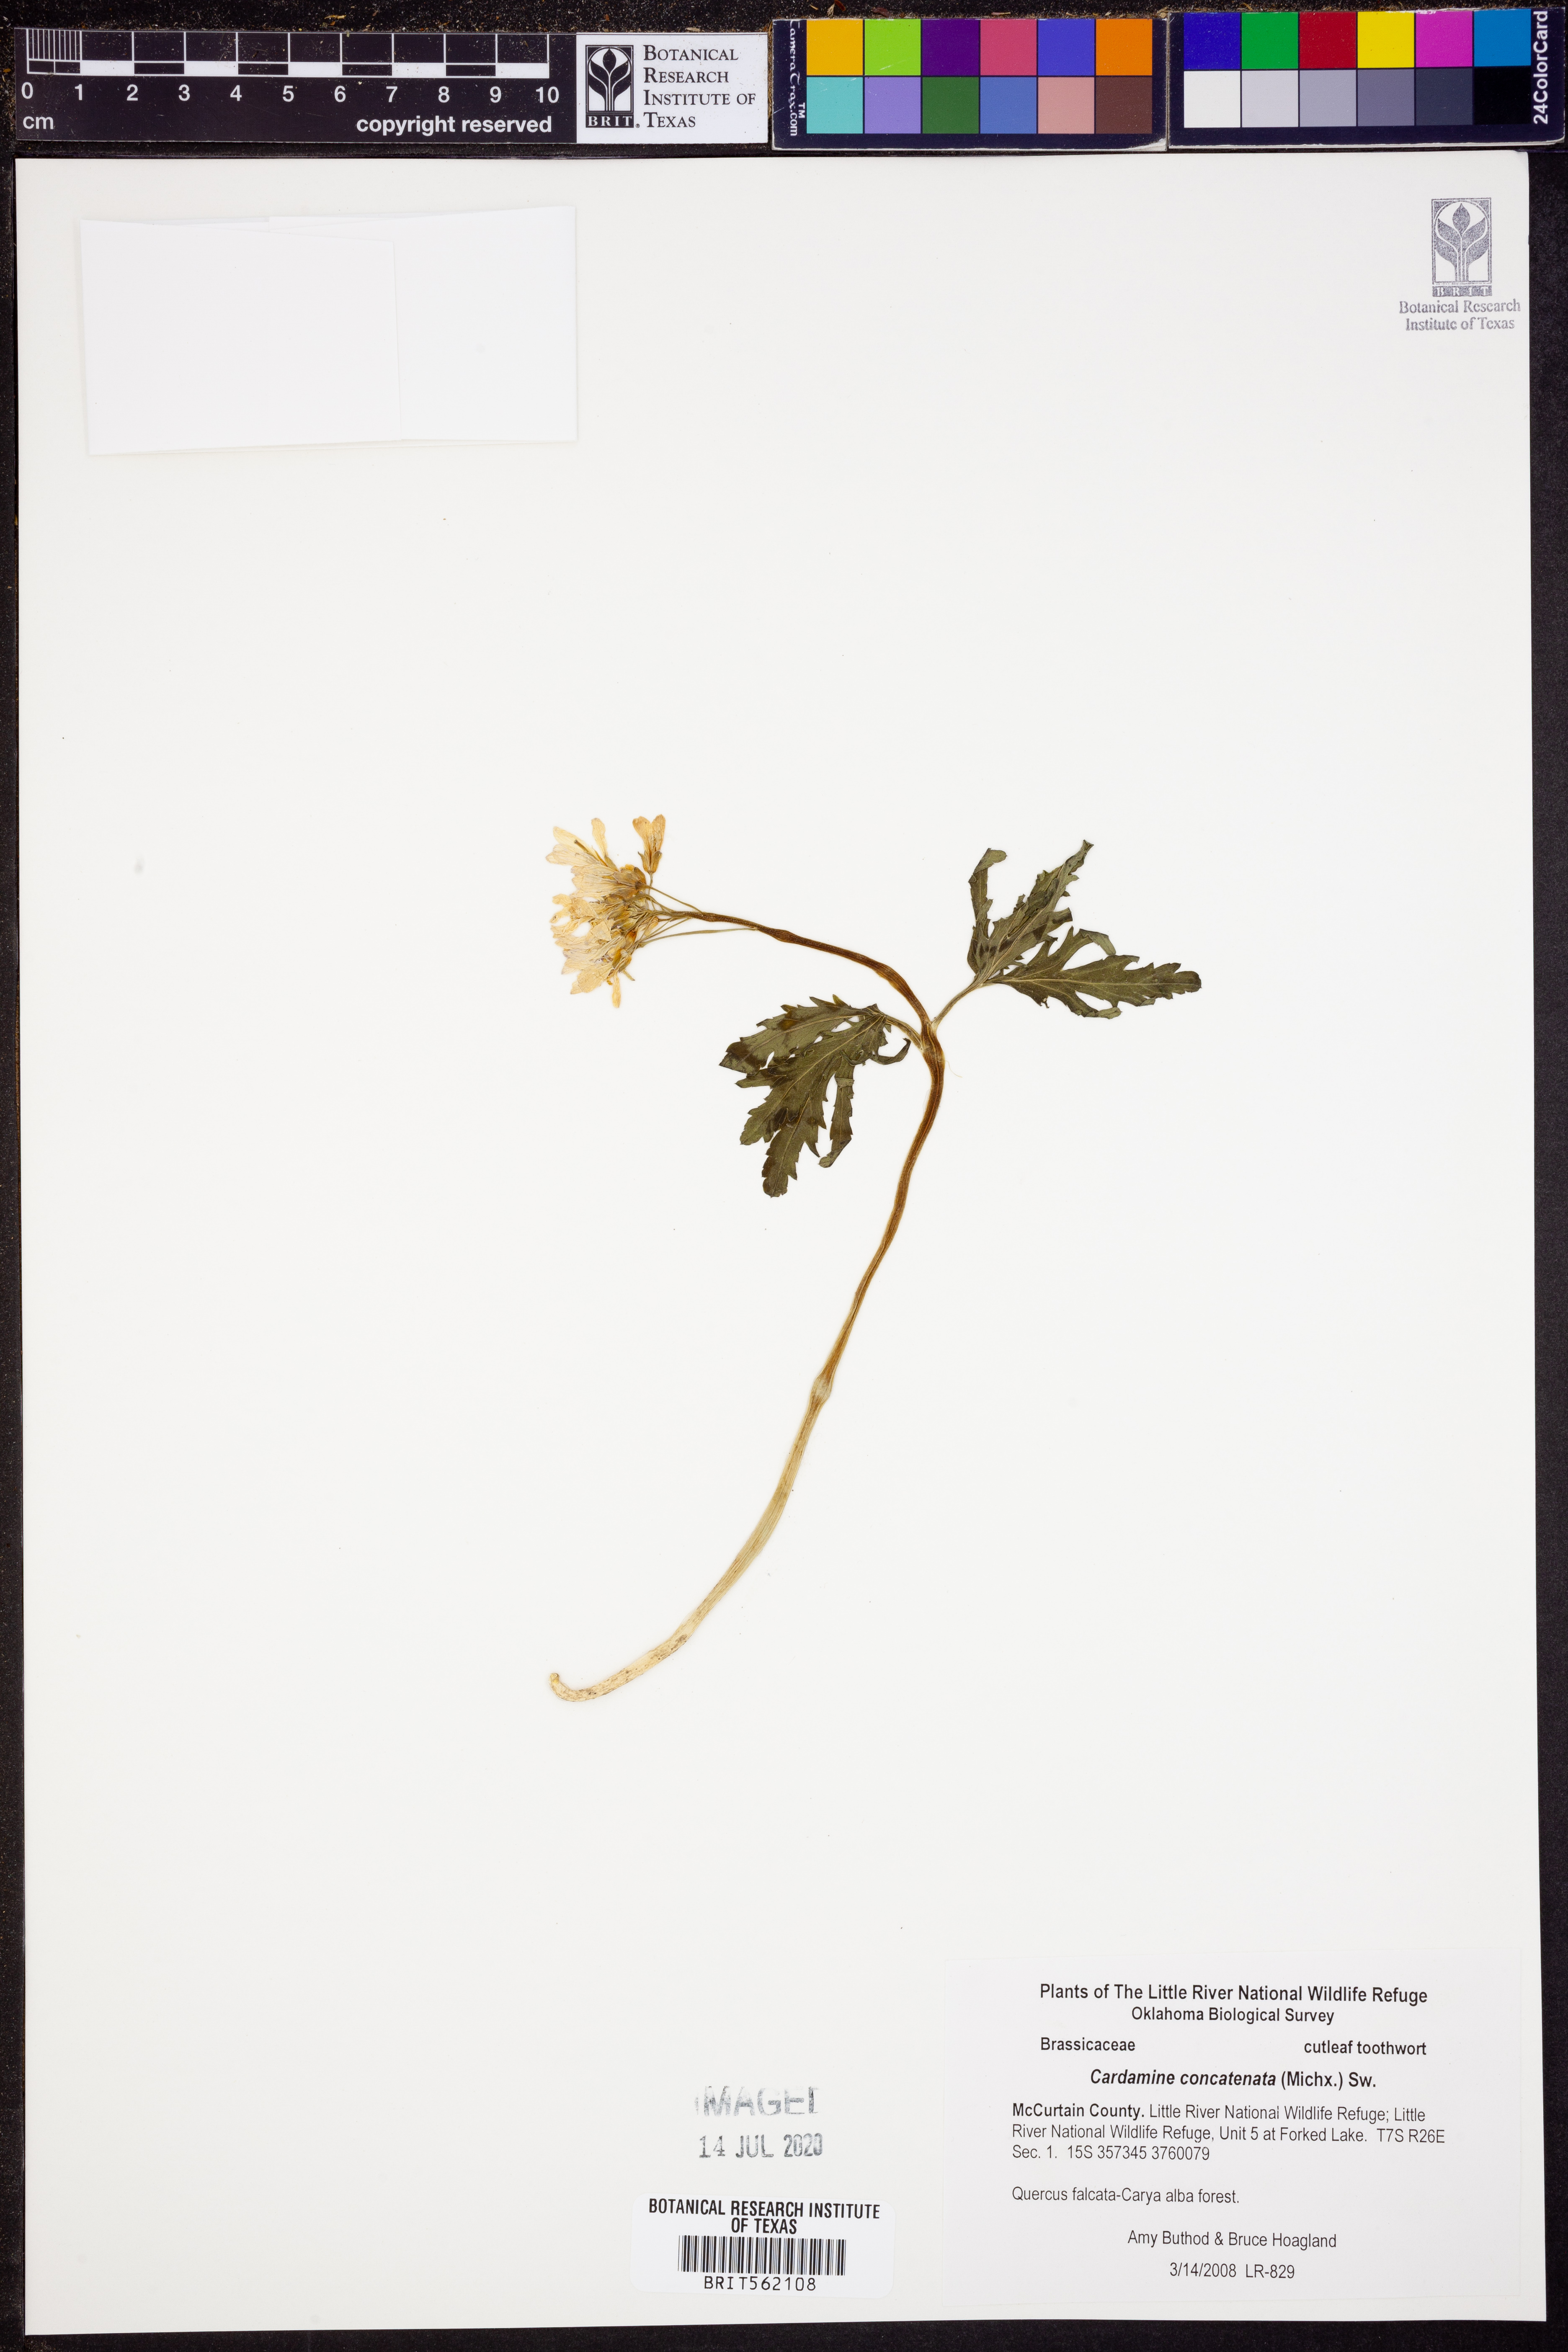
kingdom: Plantae
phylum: Tracheophyta
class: Magnoliopsida
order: Brassicales
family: Brassicaceae
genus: Cardamine
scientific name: Cardamine concatenata
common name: Cut-leaf toothcup
